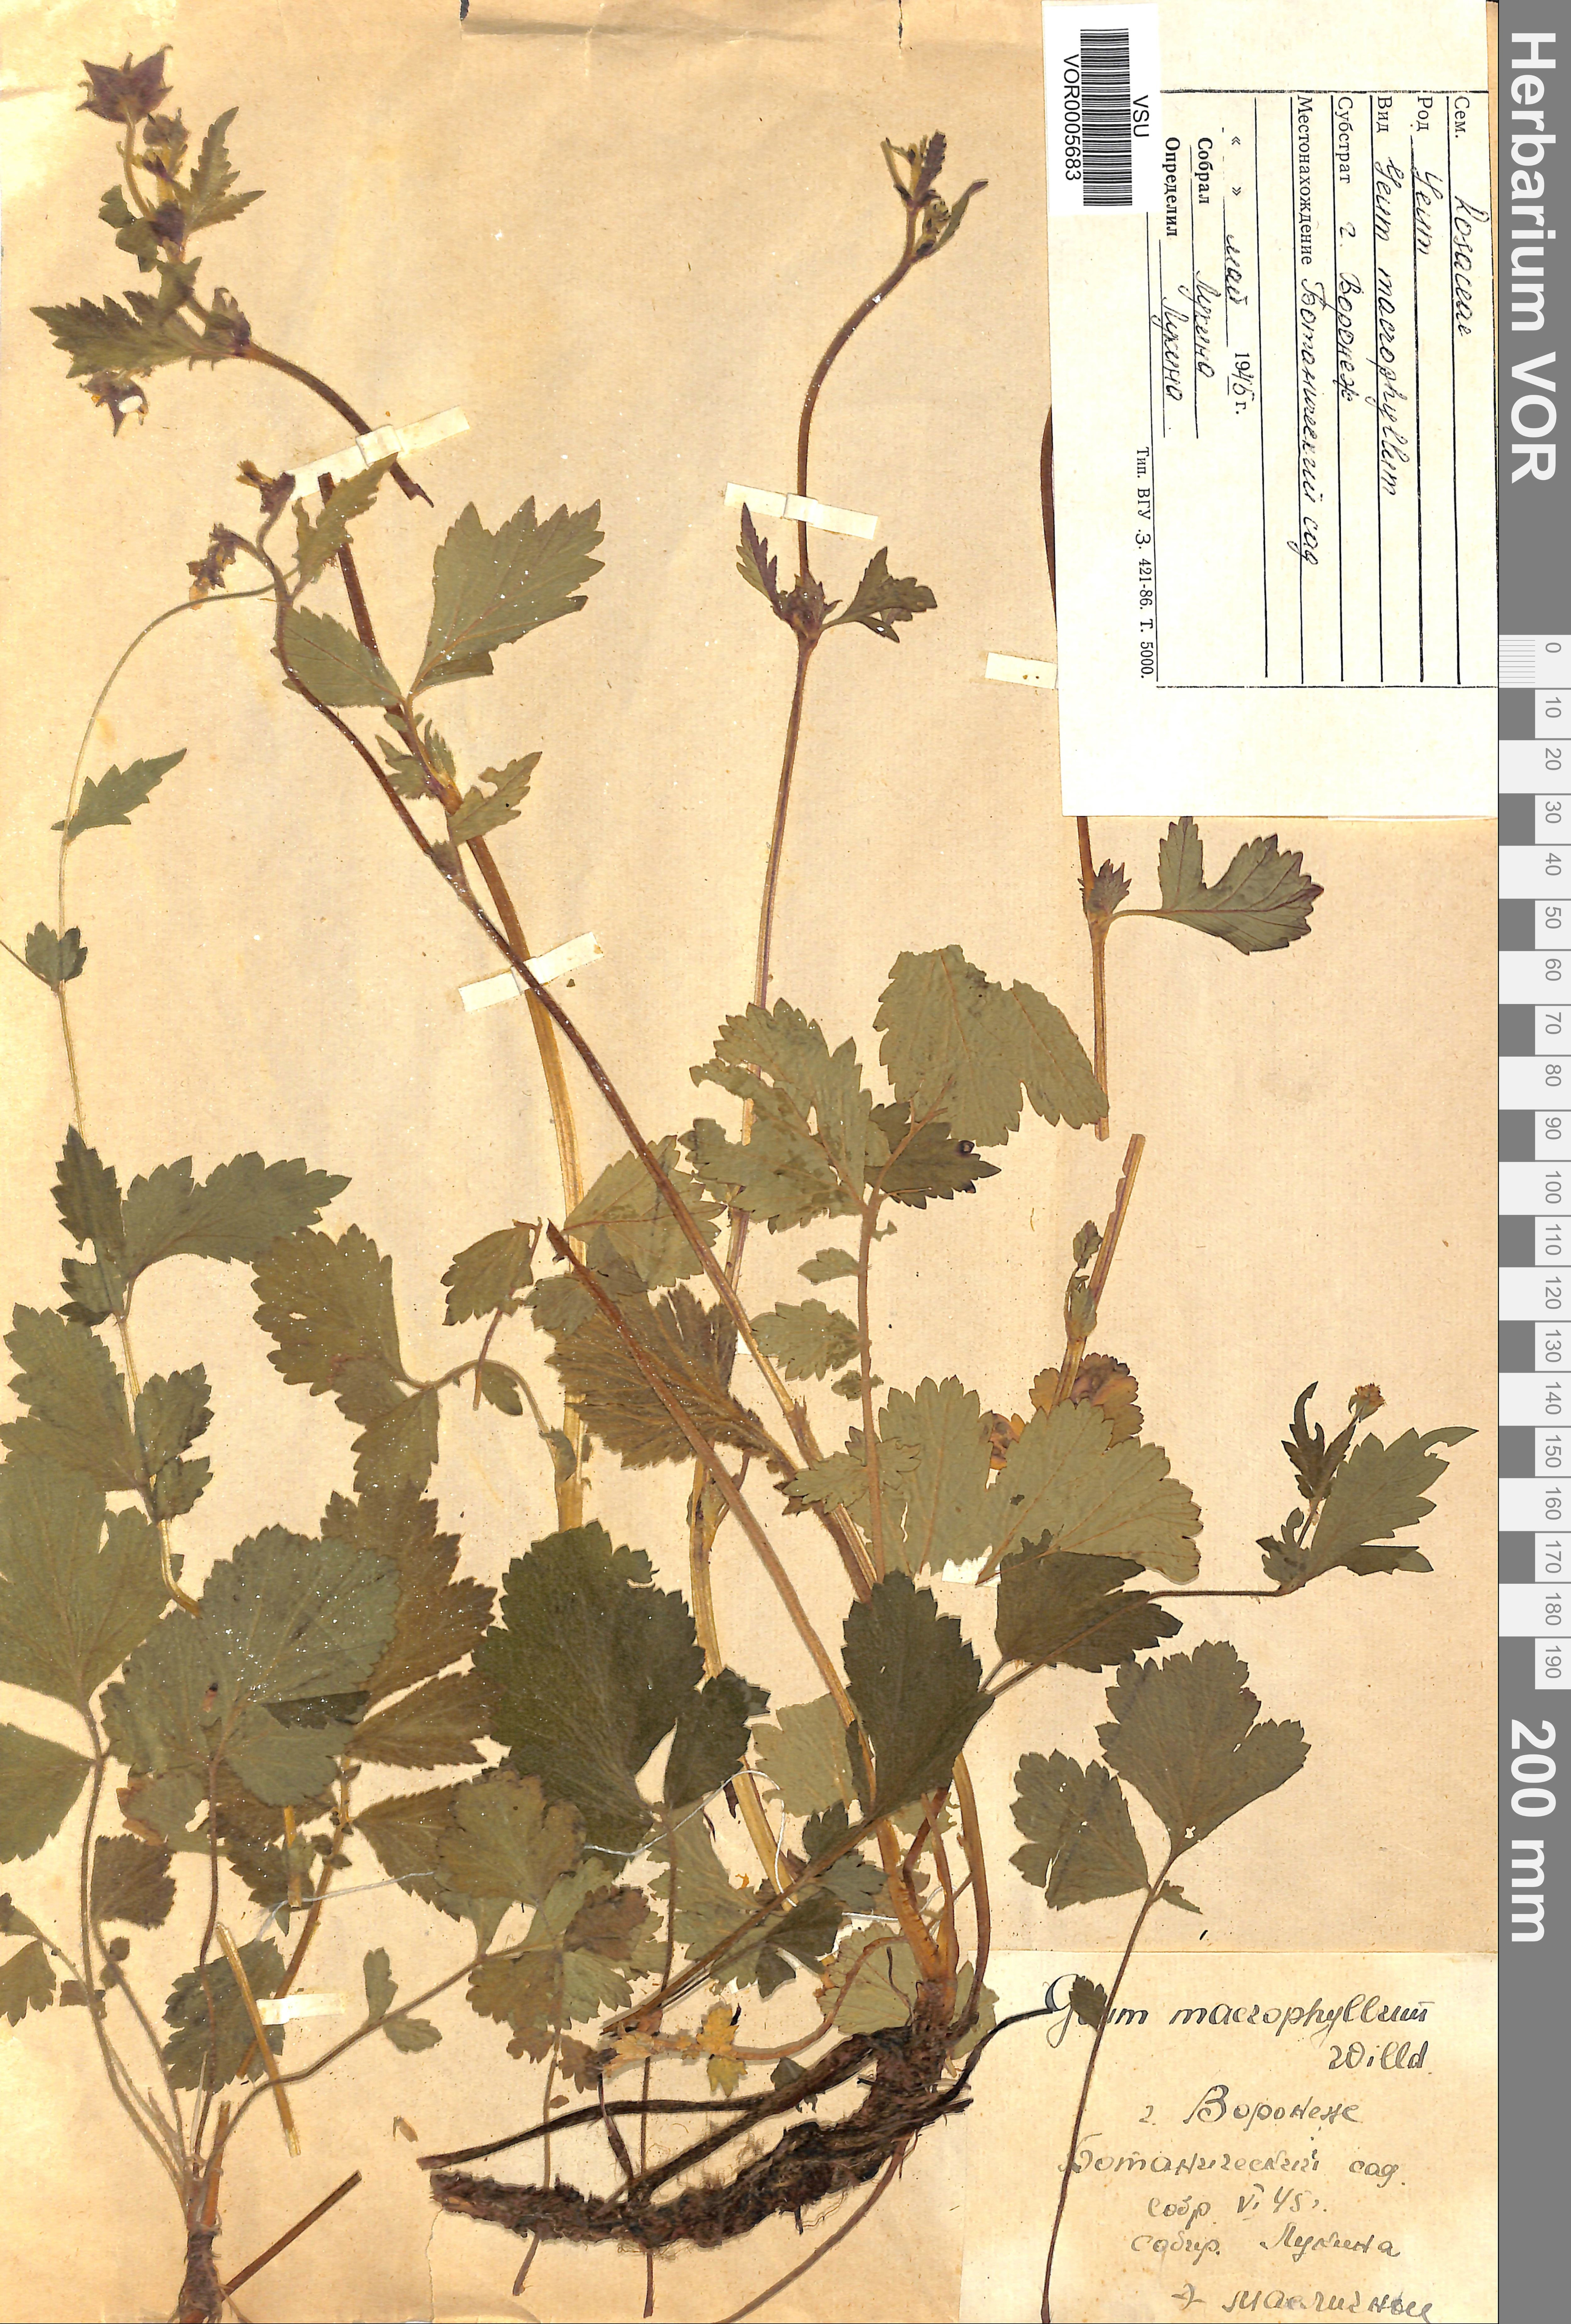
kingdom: Plantae
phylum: Tracheophyta
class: Magnoliopsida
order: Rosales
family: Rosaceae
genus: Geum
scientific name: Geum macrophyllum
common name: Large-leaved avens
